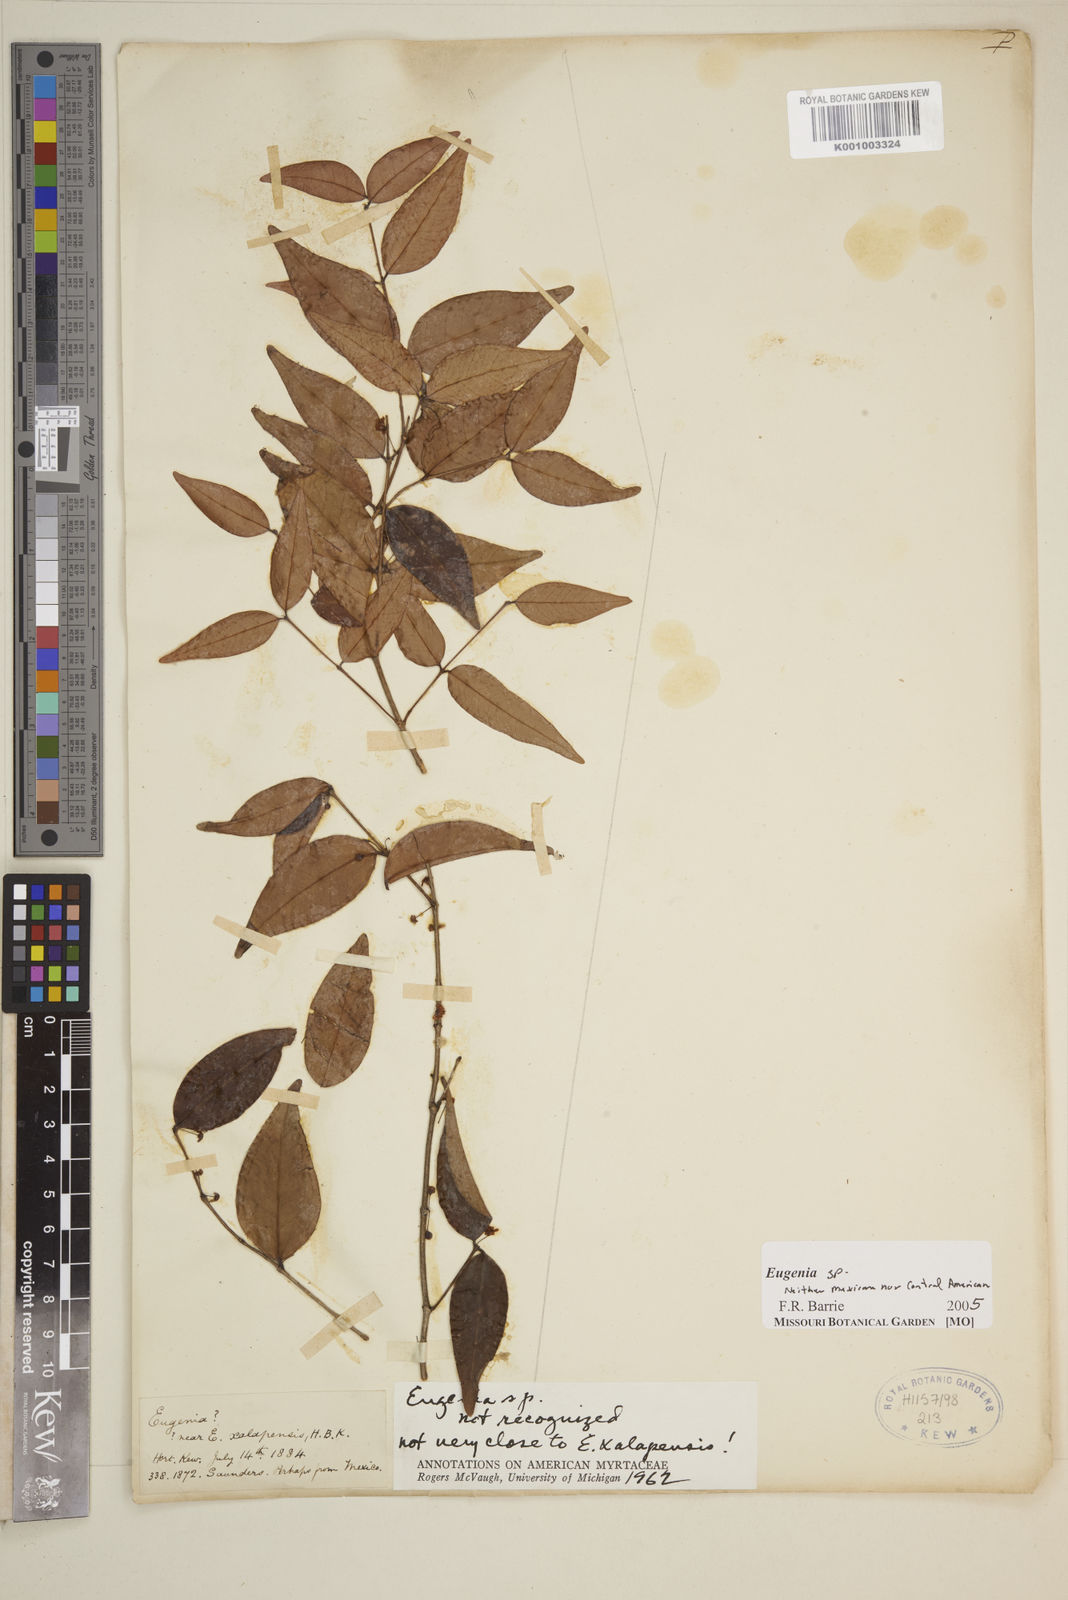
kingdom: Plantae
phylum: Tracheophyta
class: Magnoliopsida
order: Myrtales
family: Myrtaceae
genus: Eugenia
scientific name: Eugenia
